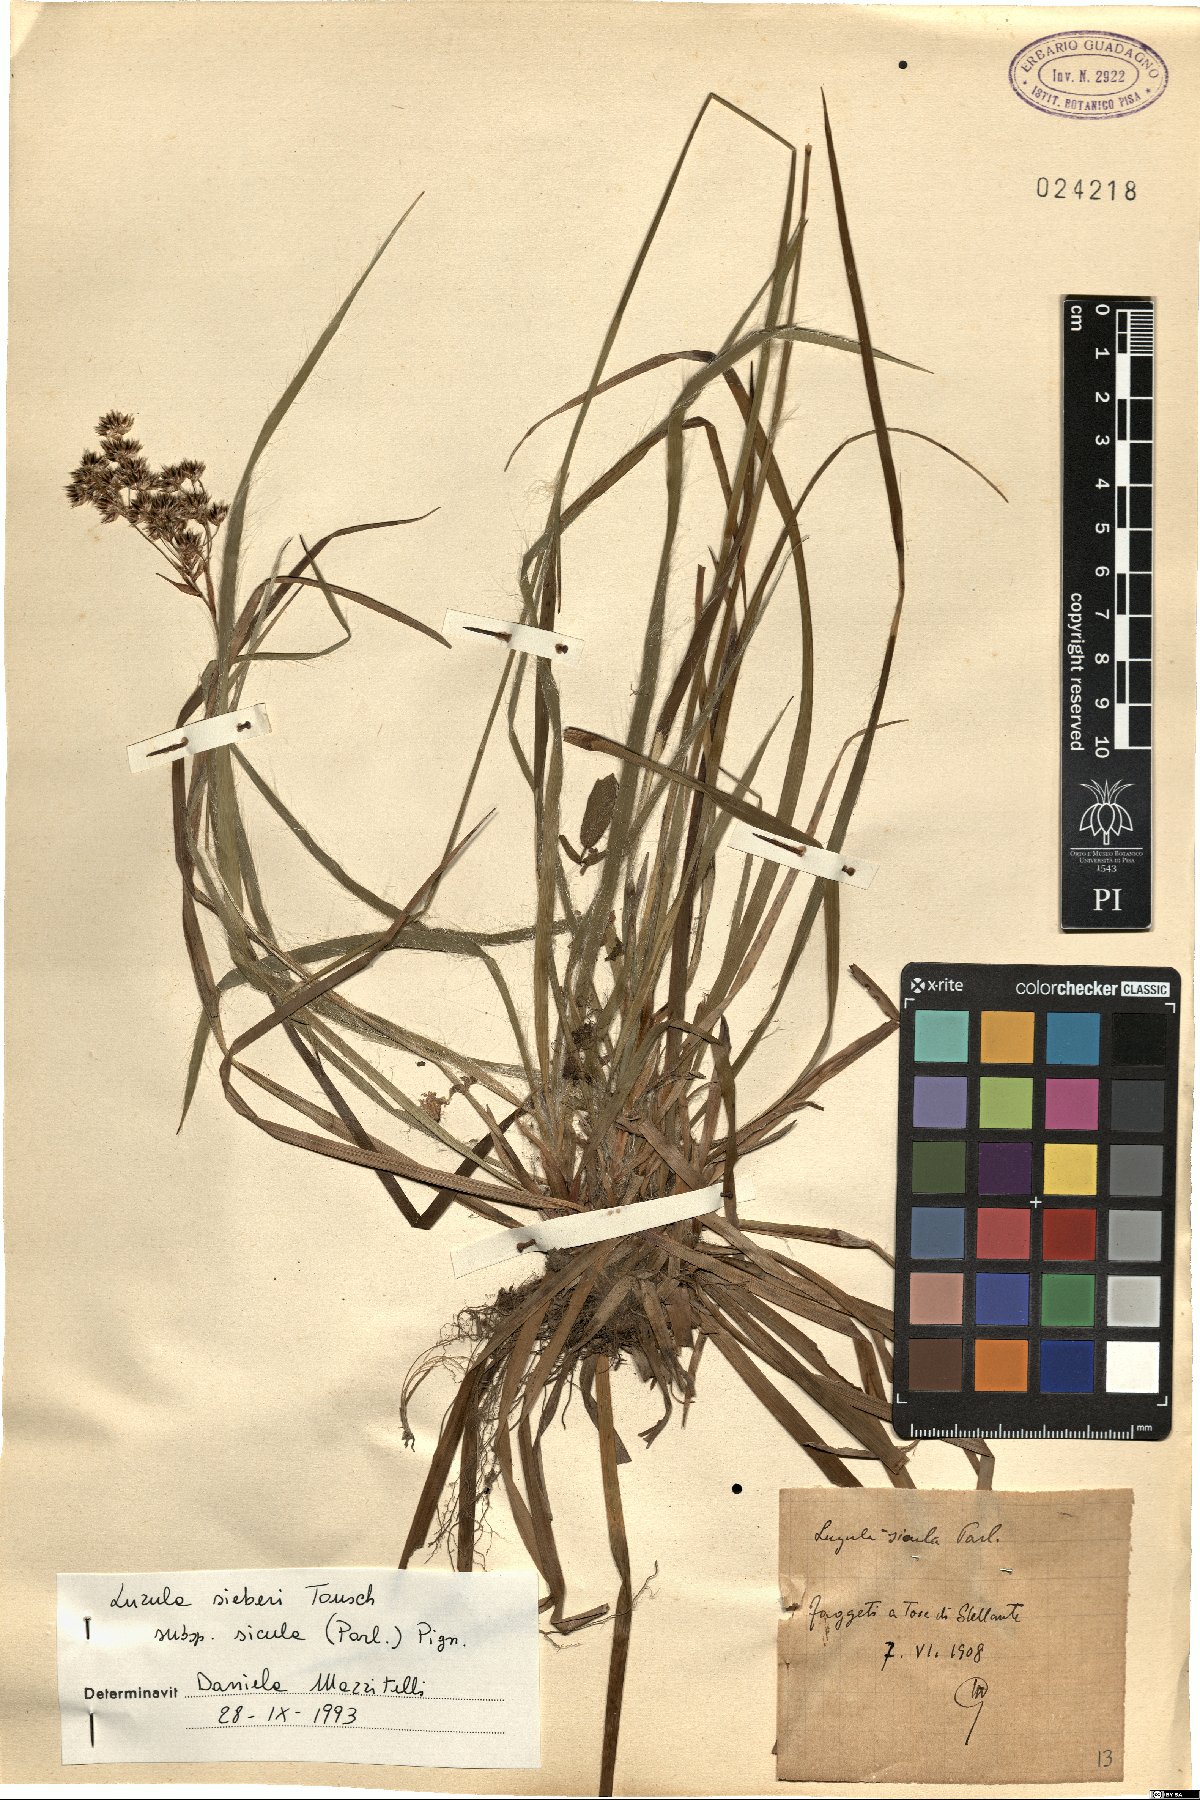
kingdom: Plantae
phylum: Tracheophyta
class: Liliopsida
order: Poales
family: Juncaceae
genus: Luzula
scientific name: Luzula sylvatica
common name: Great wood-rush
